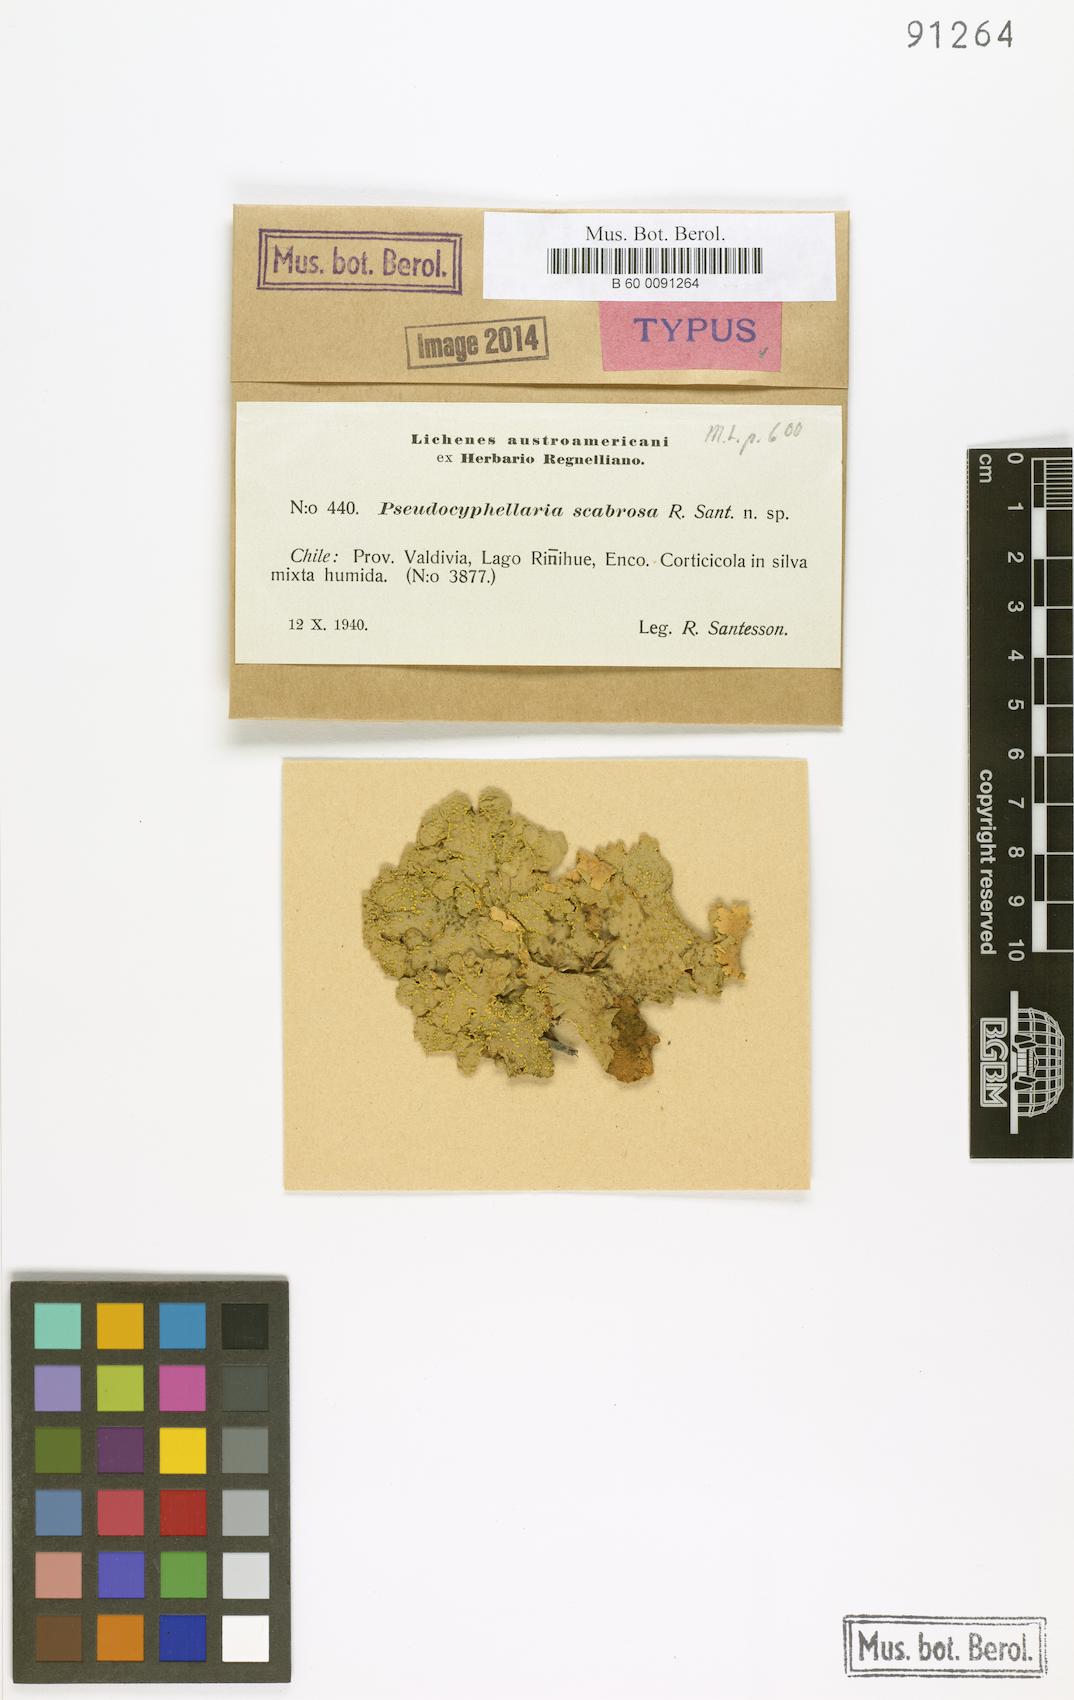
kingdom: Fungi
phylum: Ascomycota
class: Lecanoromycetes
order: Peltigerales
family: Lobariaceae
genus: Podostictina
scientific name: Podostictina scabrosa
